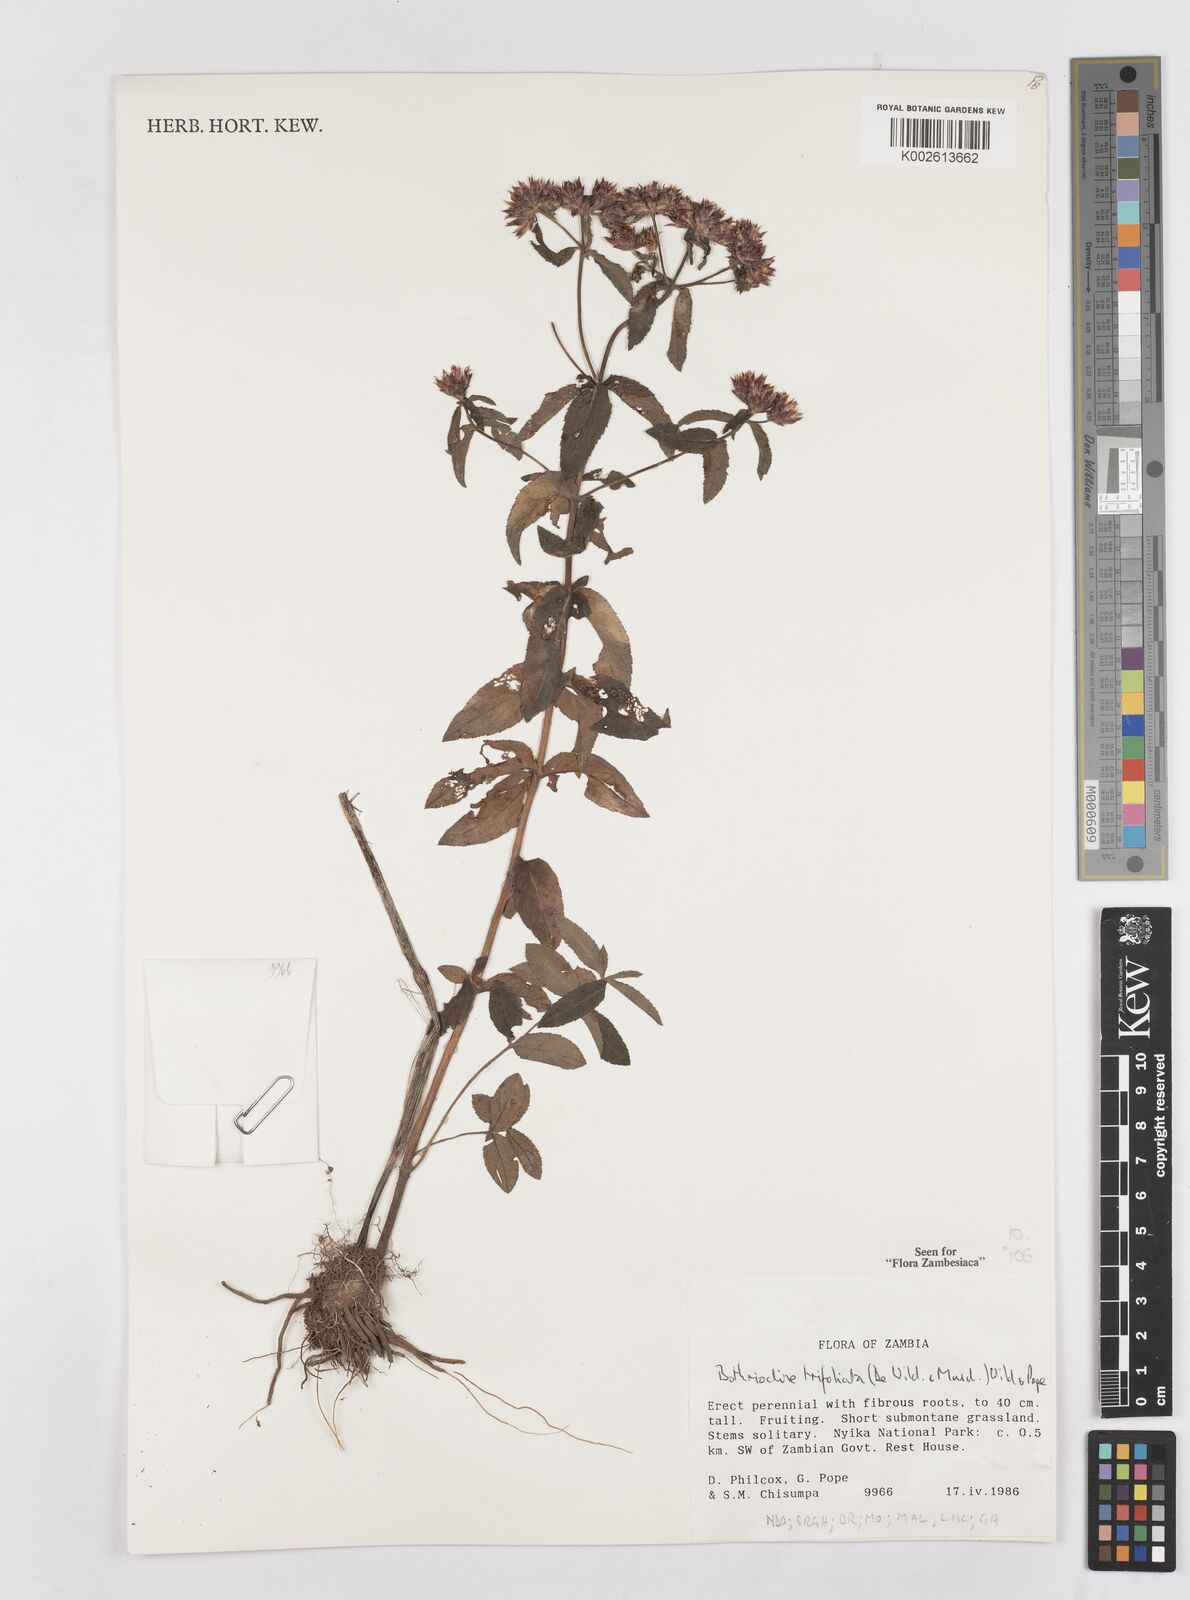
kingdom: Plantae
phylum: Tracheophyta
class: Magnoliopsida
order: Asterales
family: Asteraceae
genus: Bothriocline
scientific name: Bothriocline trifoliata
